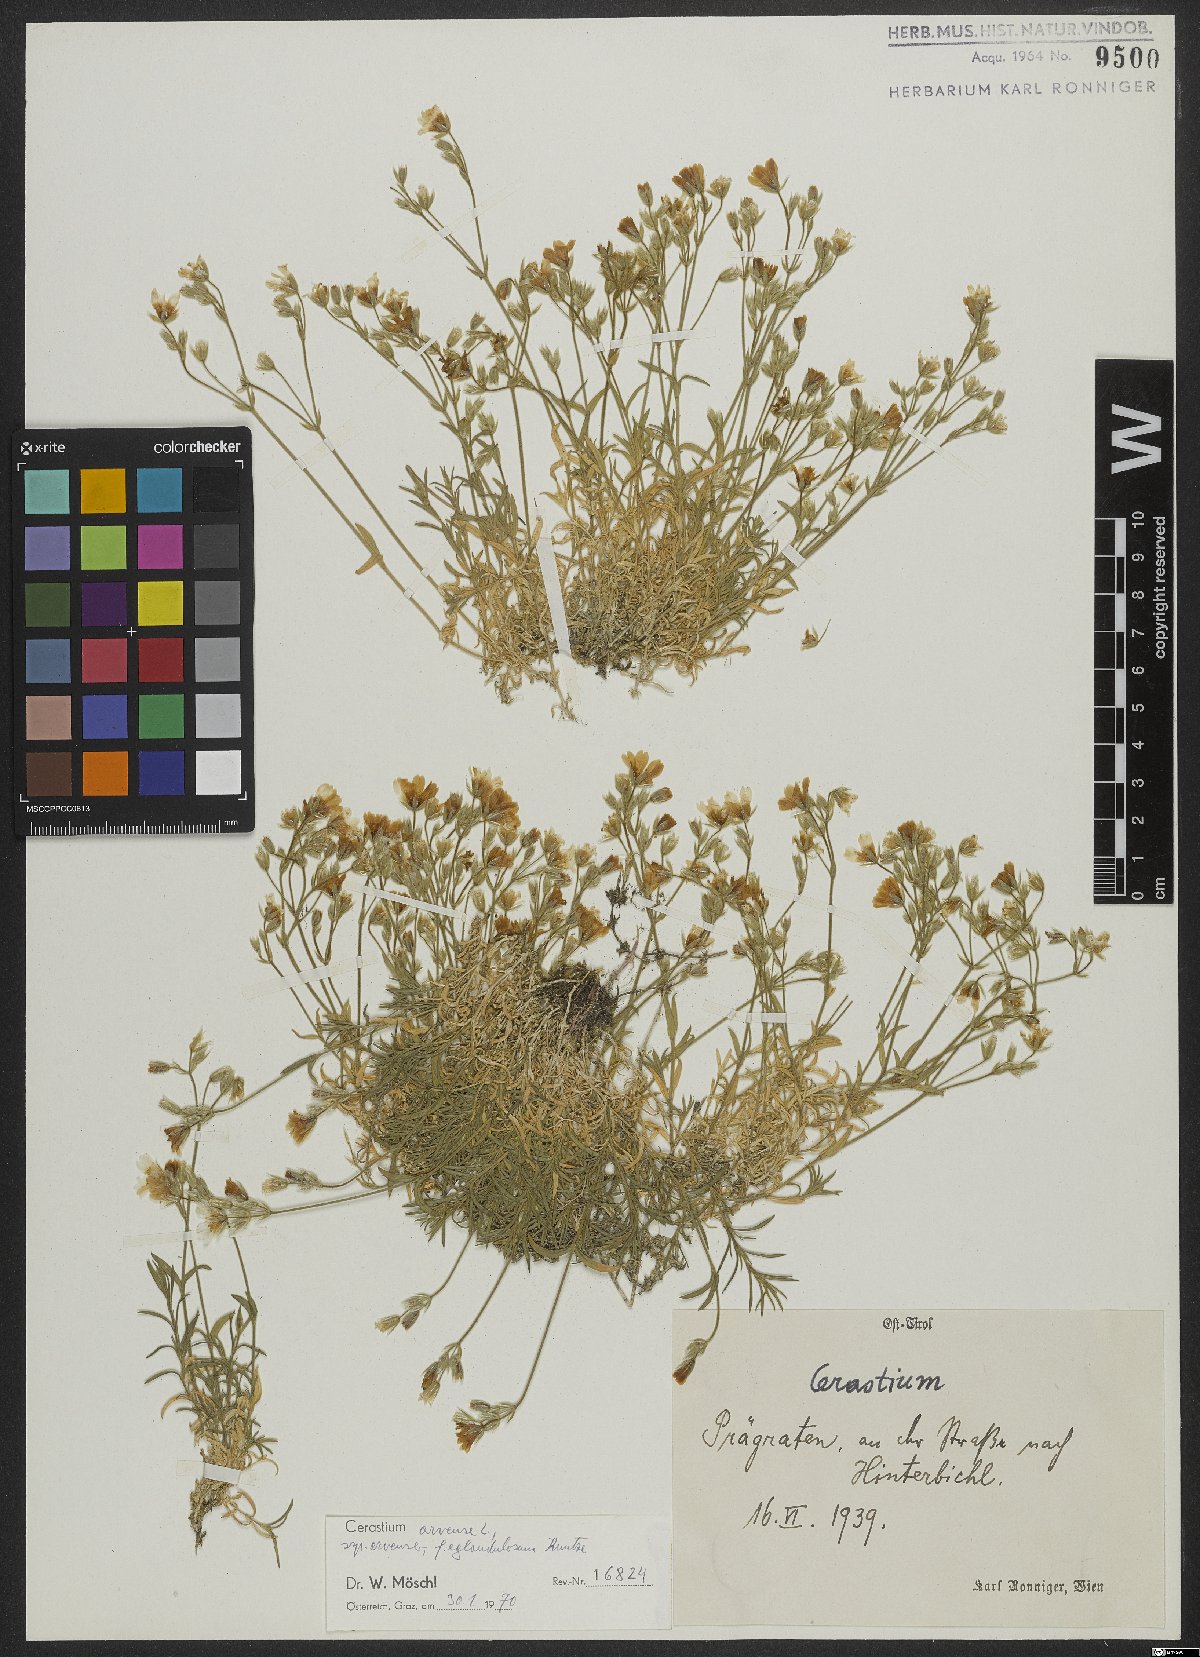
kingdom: Plantae
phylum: Tracheophyta
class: Magnoliopsida
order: Caryophyllales
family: Caryophyllaceae
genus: Cerastium
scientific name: Cerastium arvense
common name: Field mouse-ear
